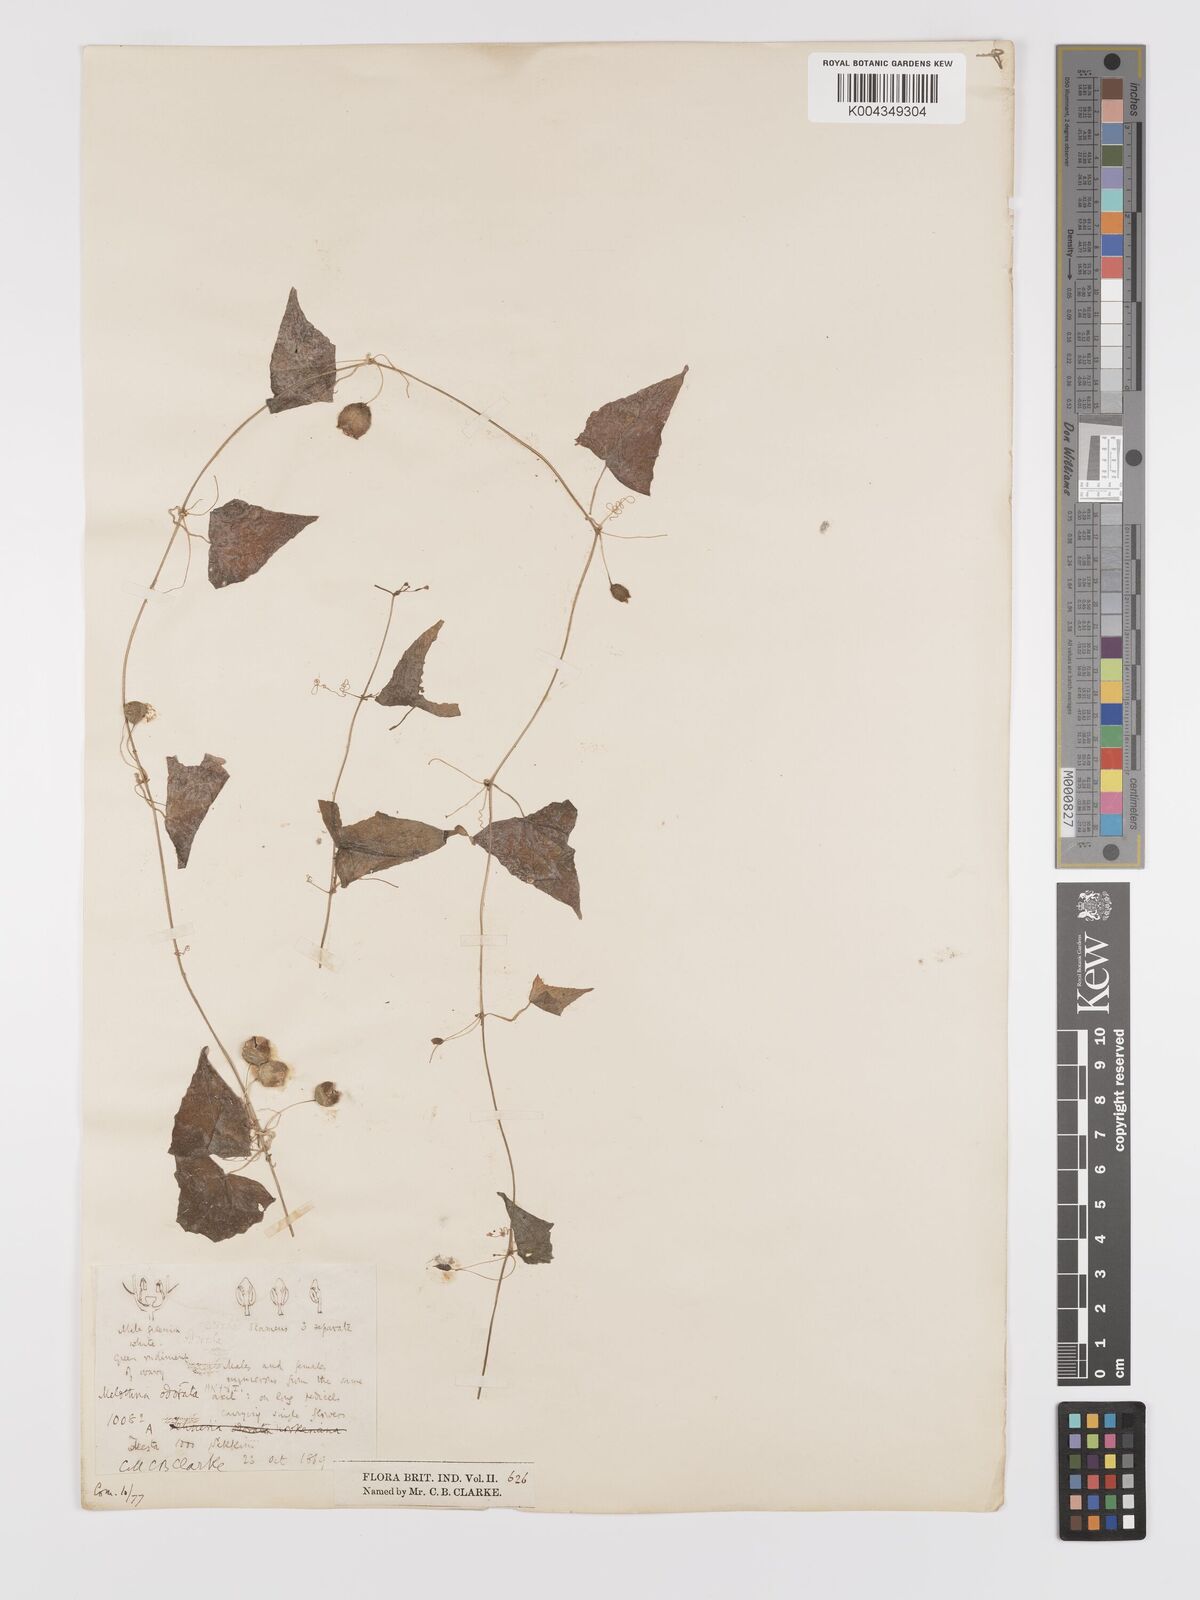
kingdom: Plantae
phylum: Tracheophyta
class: Magnoliopsida
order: Cucurbitales
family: Cucurbitaceae
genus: Zehneria
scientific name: Zehneria odorata
